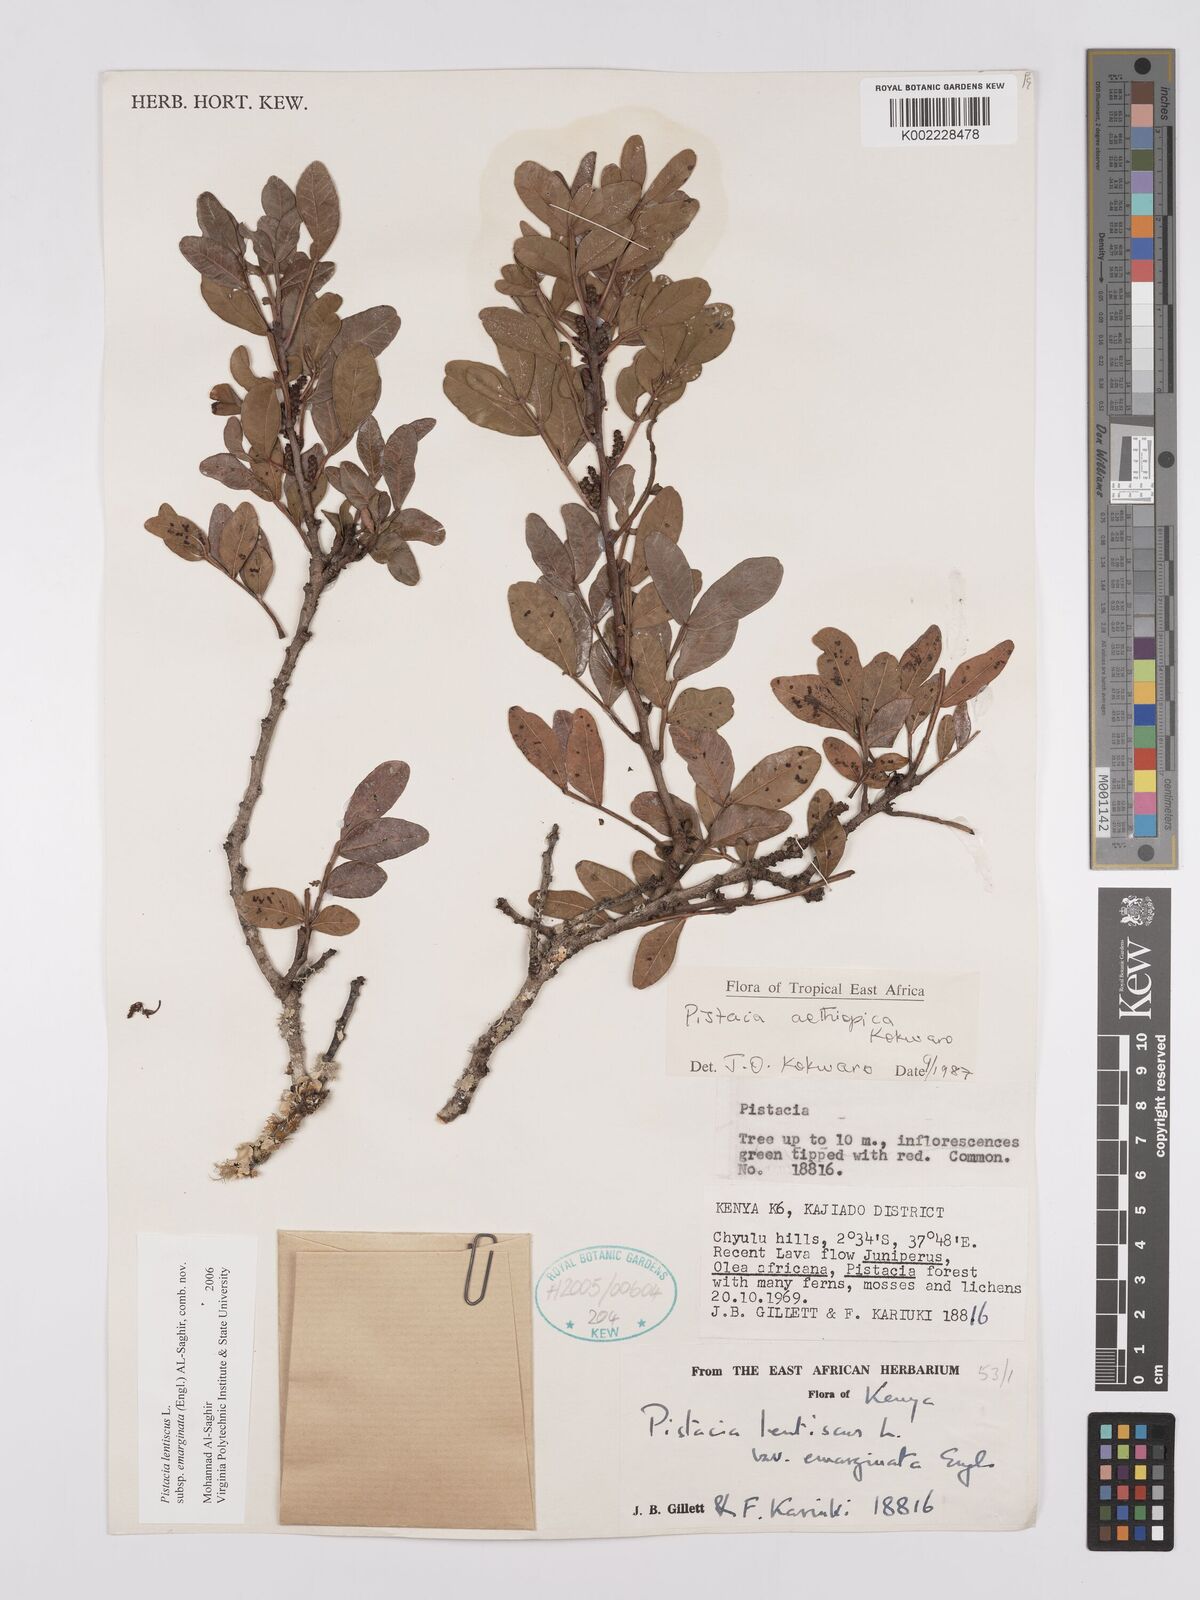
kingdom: Plantae
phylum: Tracheophyta
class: Magnoliopsida
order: Sapindales
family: Anacardiaceae
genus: Pistacia
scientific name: Pistacia lentiscus
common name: Lentisk
